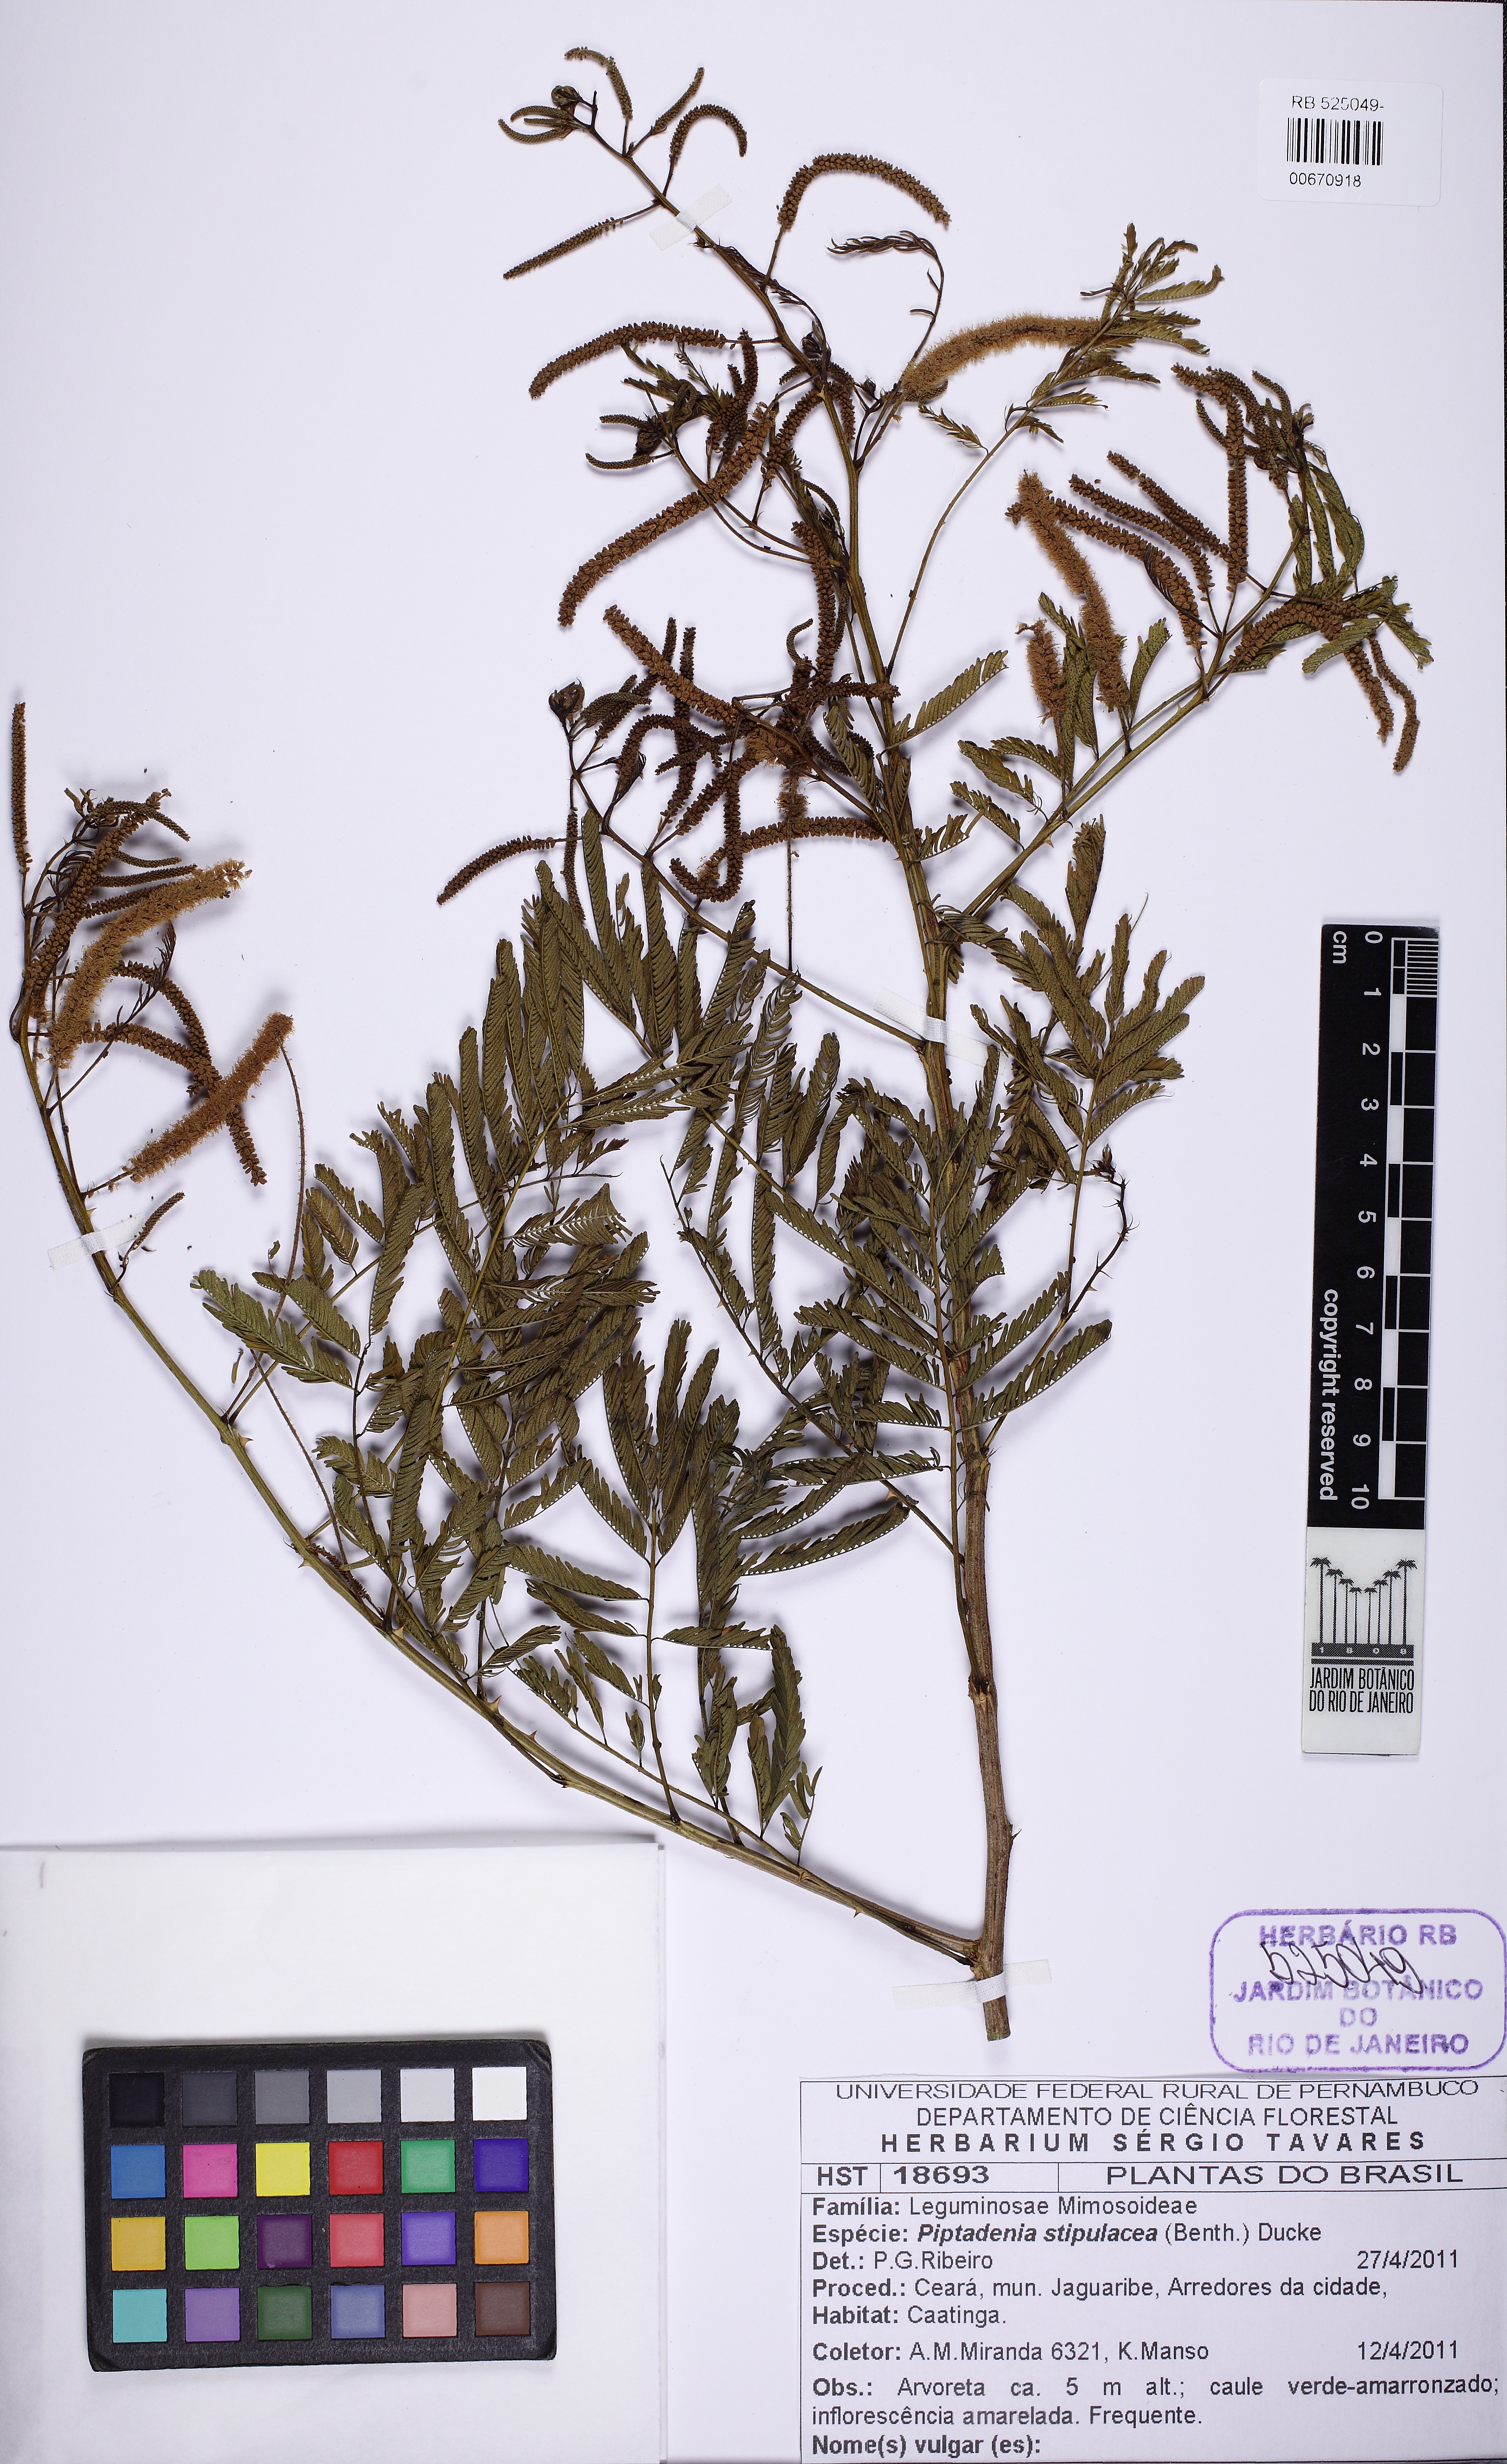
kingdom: Plantae
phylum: Tracheophyta
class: Magnoliopsida
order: Fabales
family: Fabaceae
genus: Piptadenia
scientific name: Piptadenia retusa
